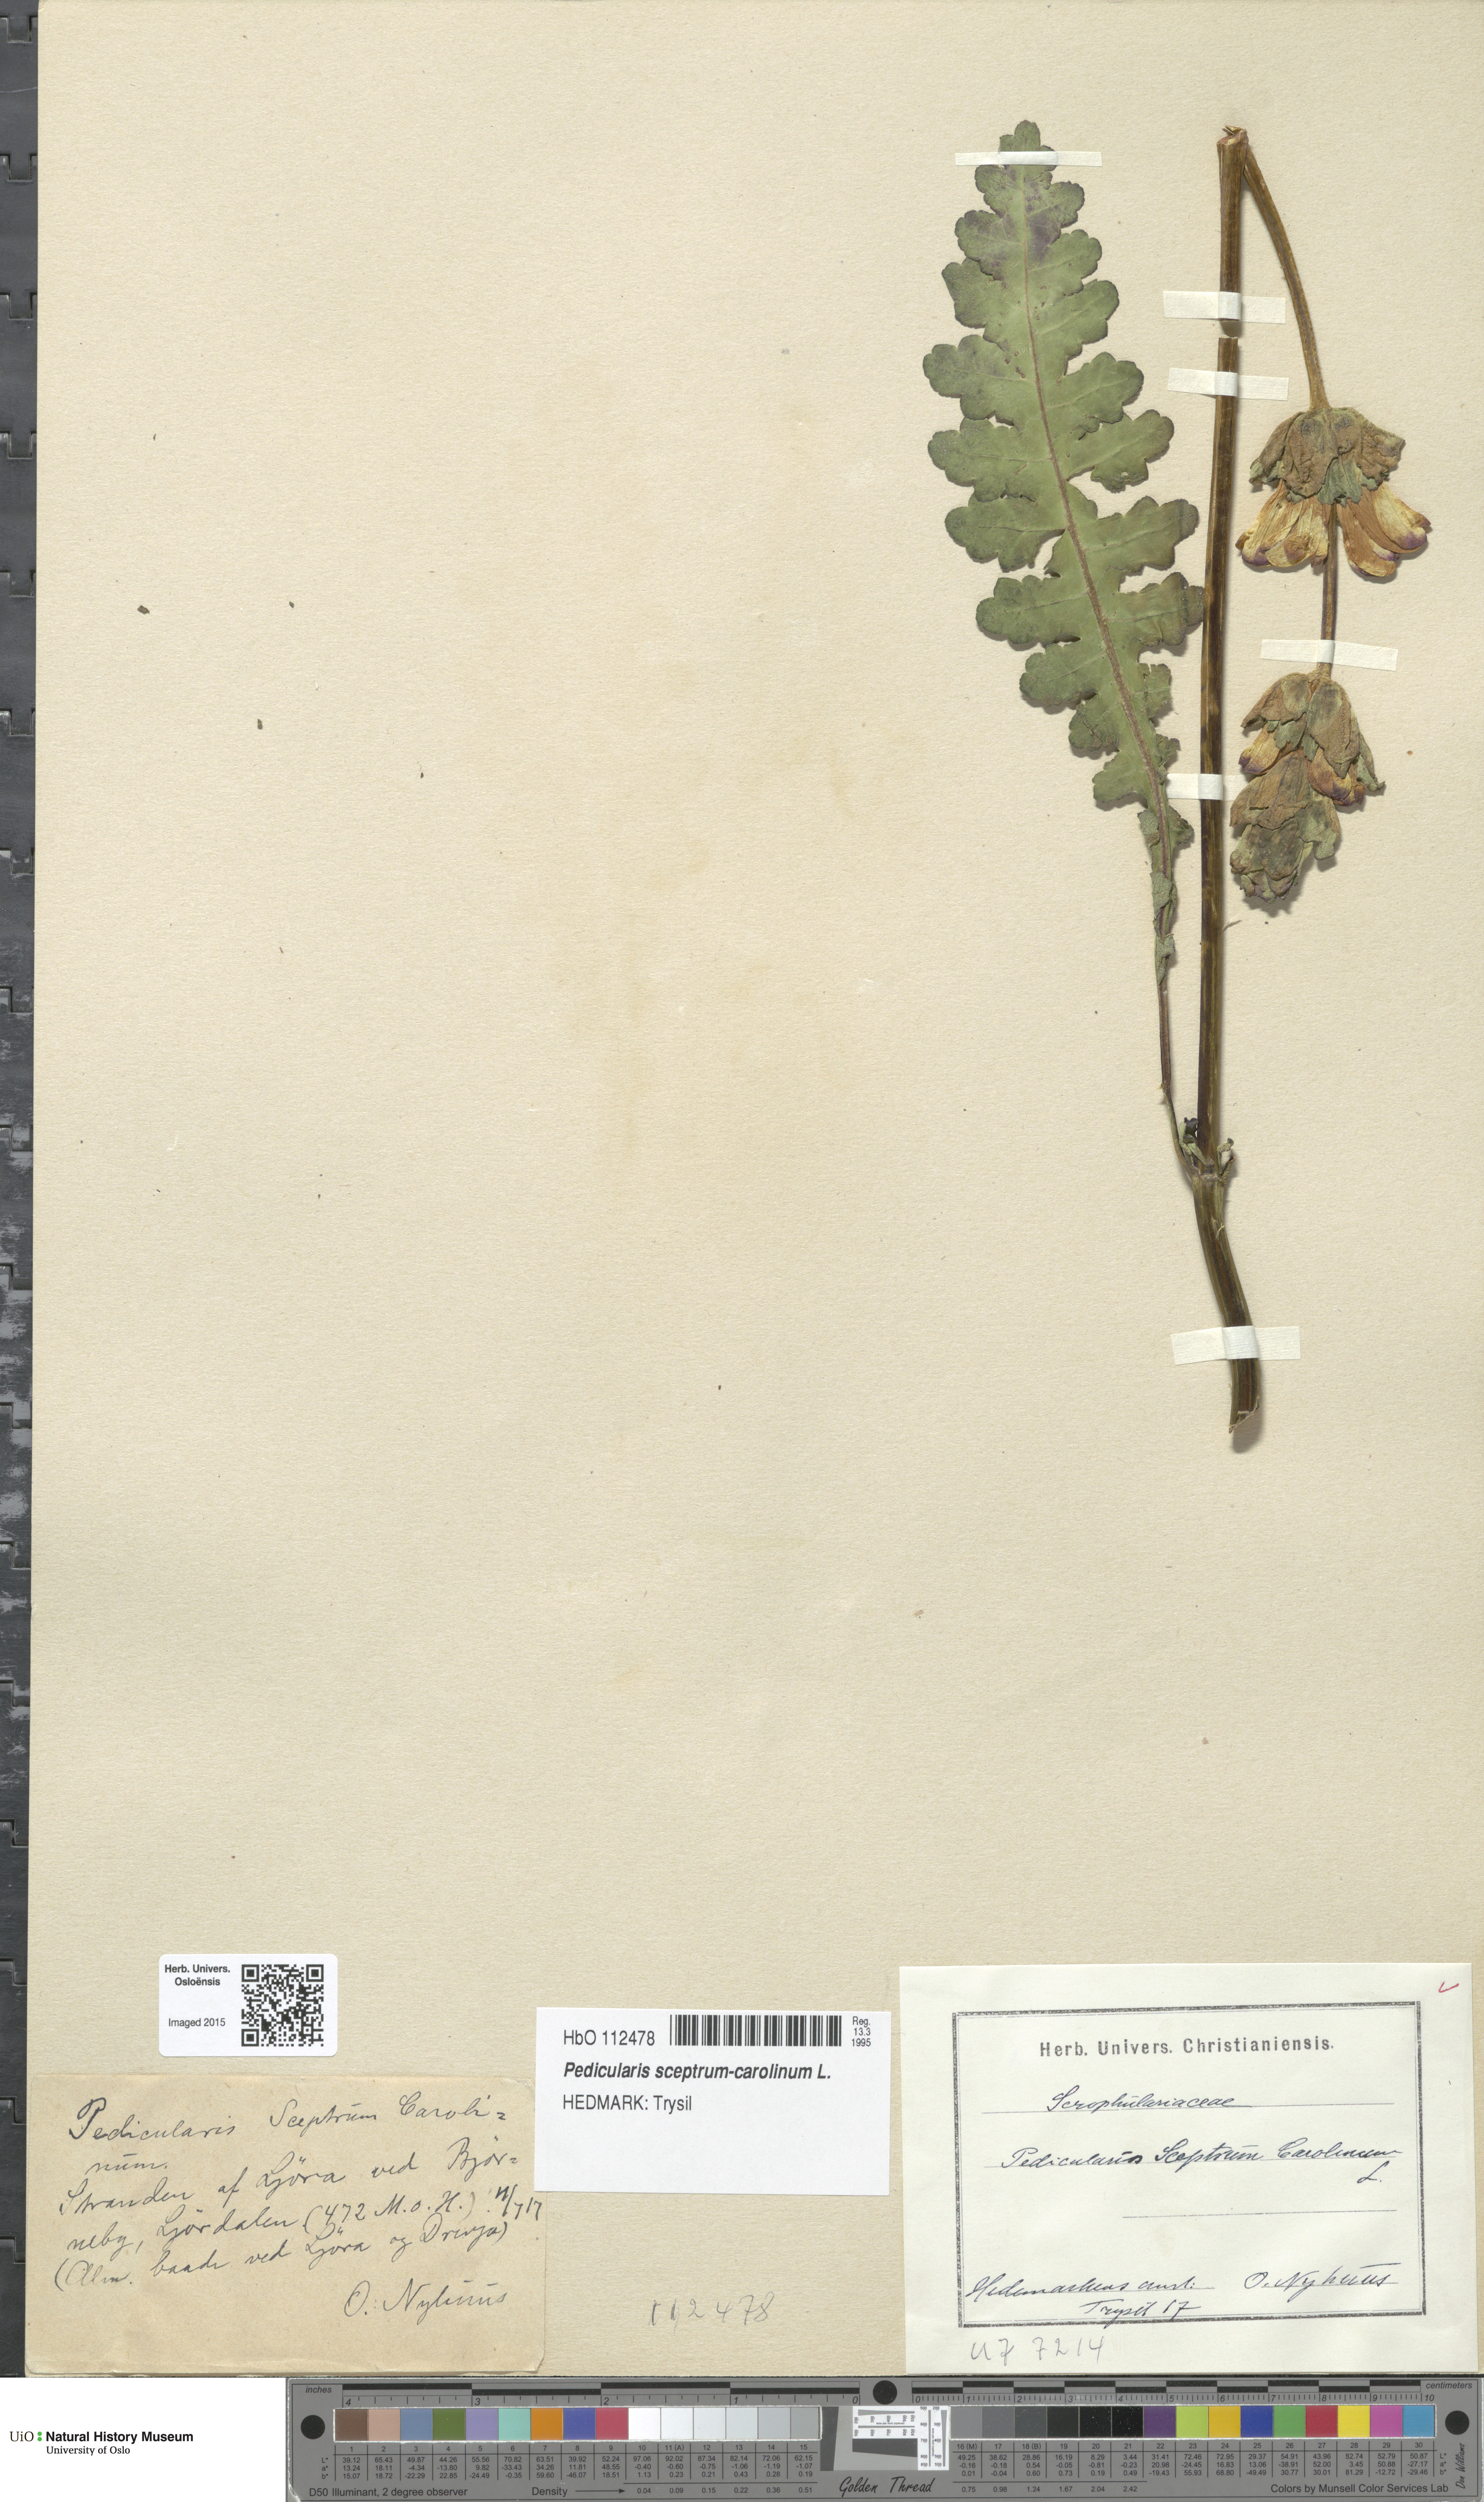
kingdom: Plantae
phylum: Tracheophyta
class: Magnoliopsida
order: Lamiales
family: Orobanchaceae
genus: Pedicularis
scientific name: Pedicularis sceptrum-carolinum
